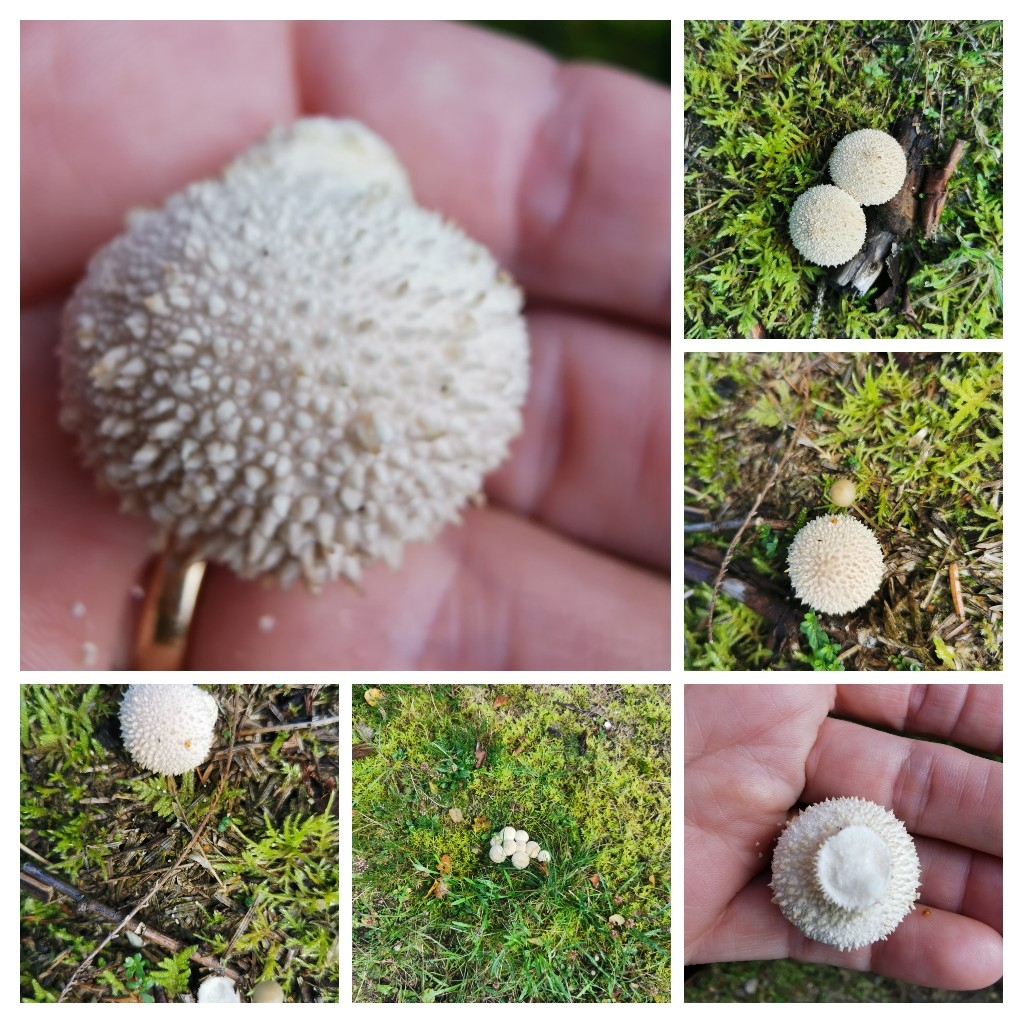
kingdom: Fungi
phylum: Basidiomycota
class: Agaricomycetes
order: Agaricales
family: Lycoperdaceae
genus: Lycoperdon
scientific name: Lycoperdon perlatum
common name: krystal-støvbold
